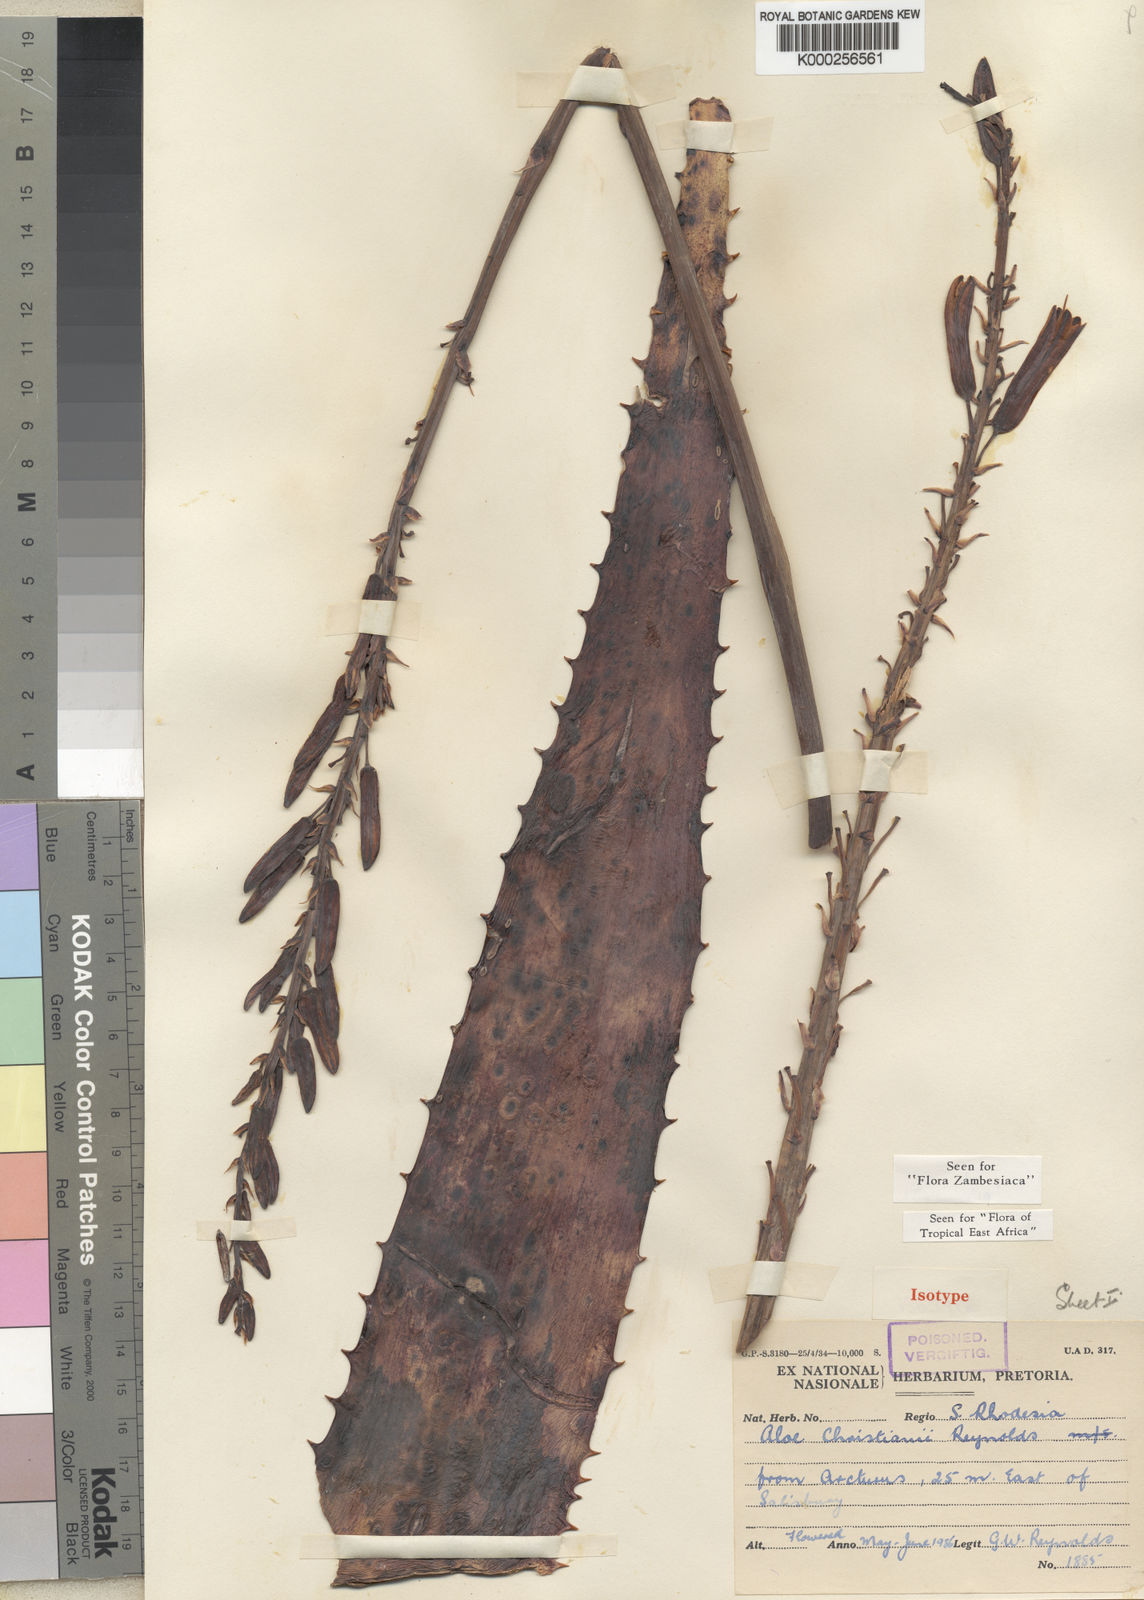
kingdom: Plantae
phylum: Tracheophyta
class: Liliopsida
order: Asparagales
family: Asphodelaceae
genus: Aloe
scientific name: Aloe christianii
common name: Basil christian's aloe
